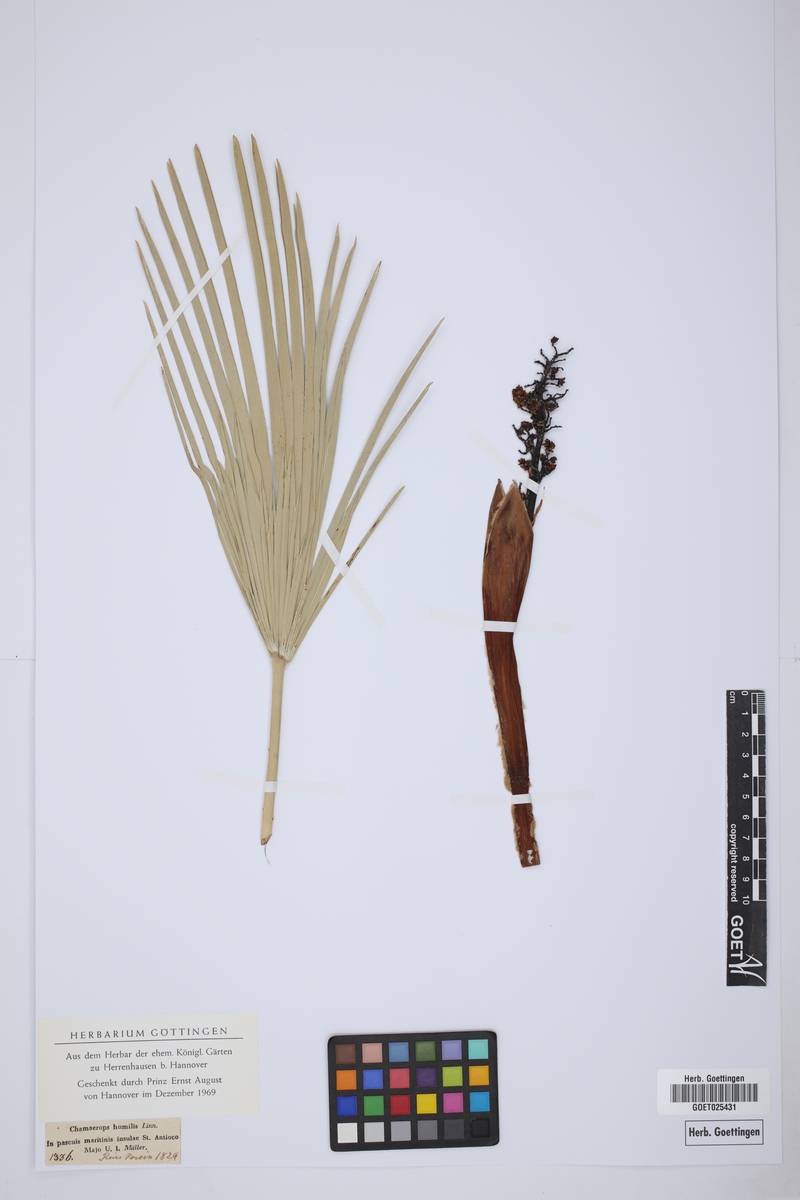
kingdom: Plantae
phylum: Tracheophyta
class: Liliopsida
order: Arecales
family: Arecaceae
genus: Chamaerops
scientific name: Chamaerops humilis
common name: Dwarf fan palm
